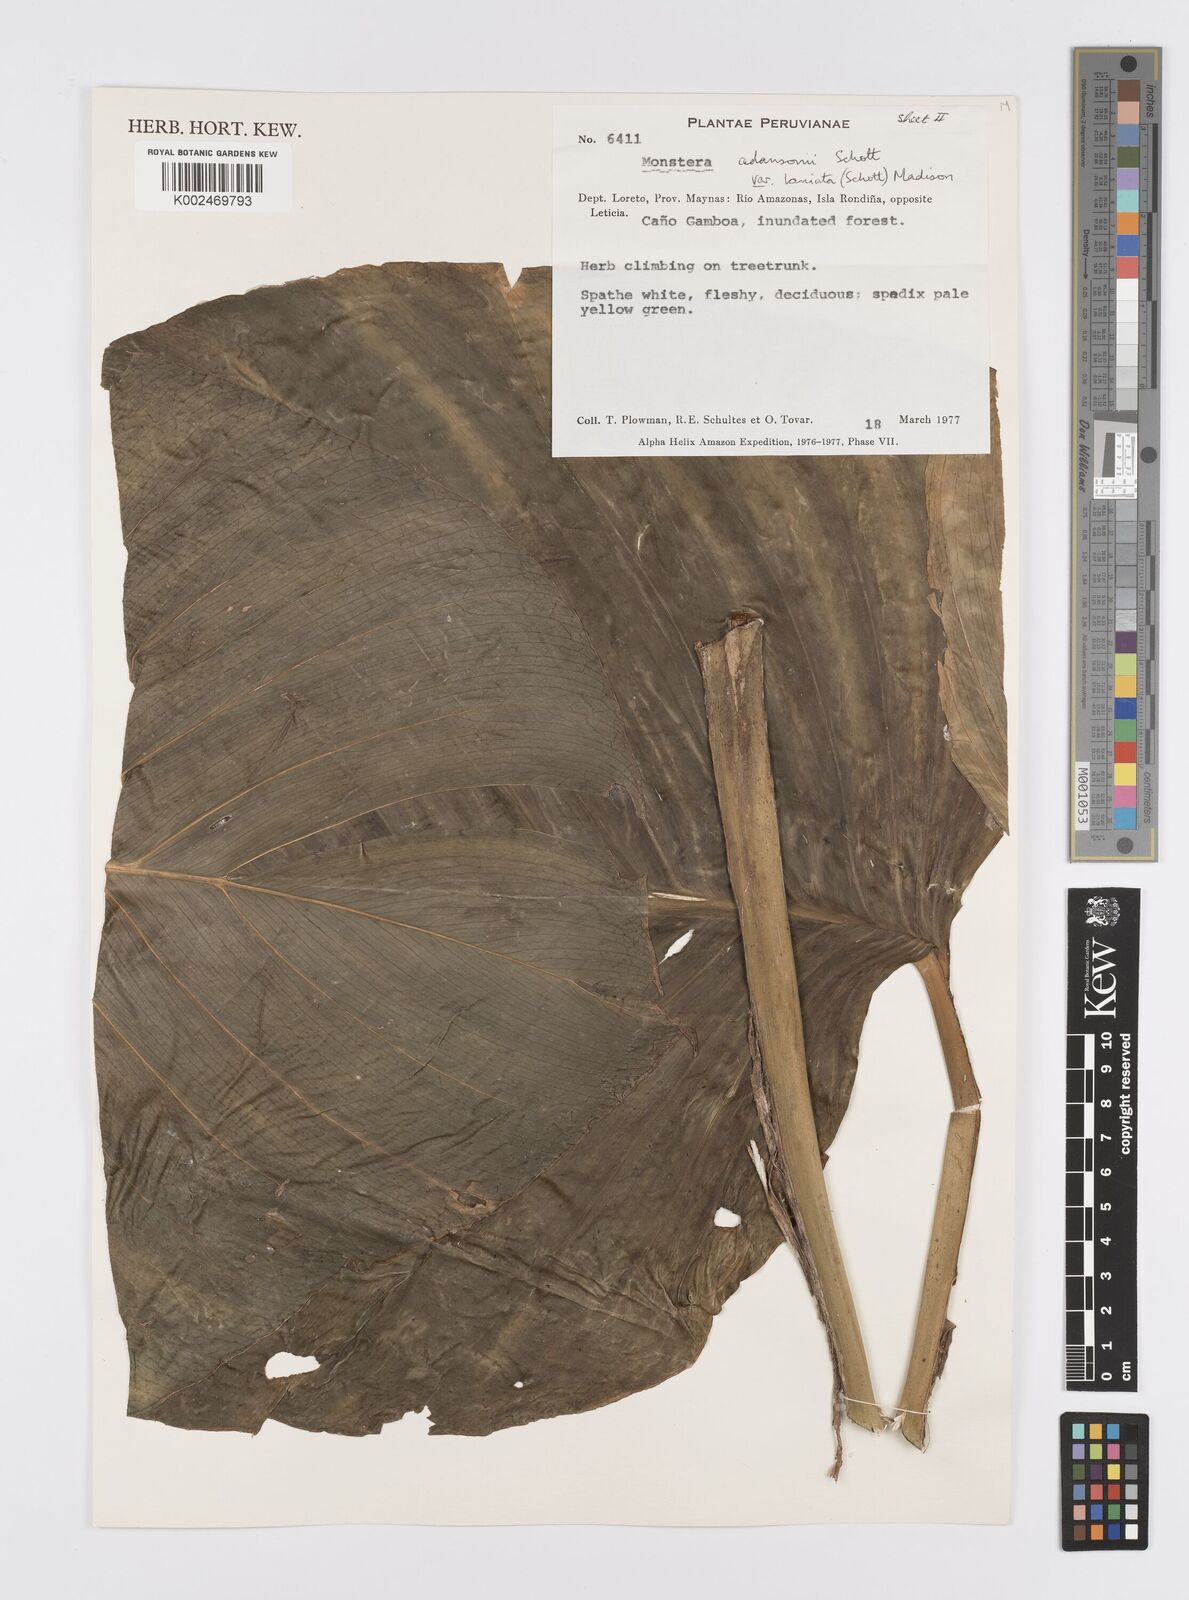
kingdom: Plantae
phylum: Tracheophyta
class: Liliopsida
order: Alismatales
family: Araceae
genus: Monstera
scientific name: Monstera adansonii
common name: Tarovine
